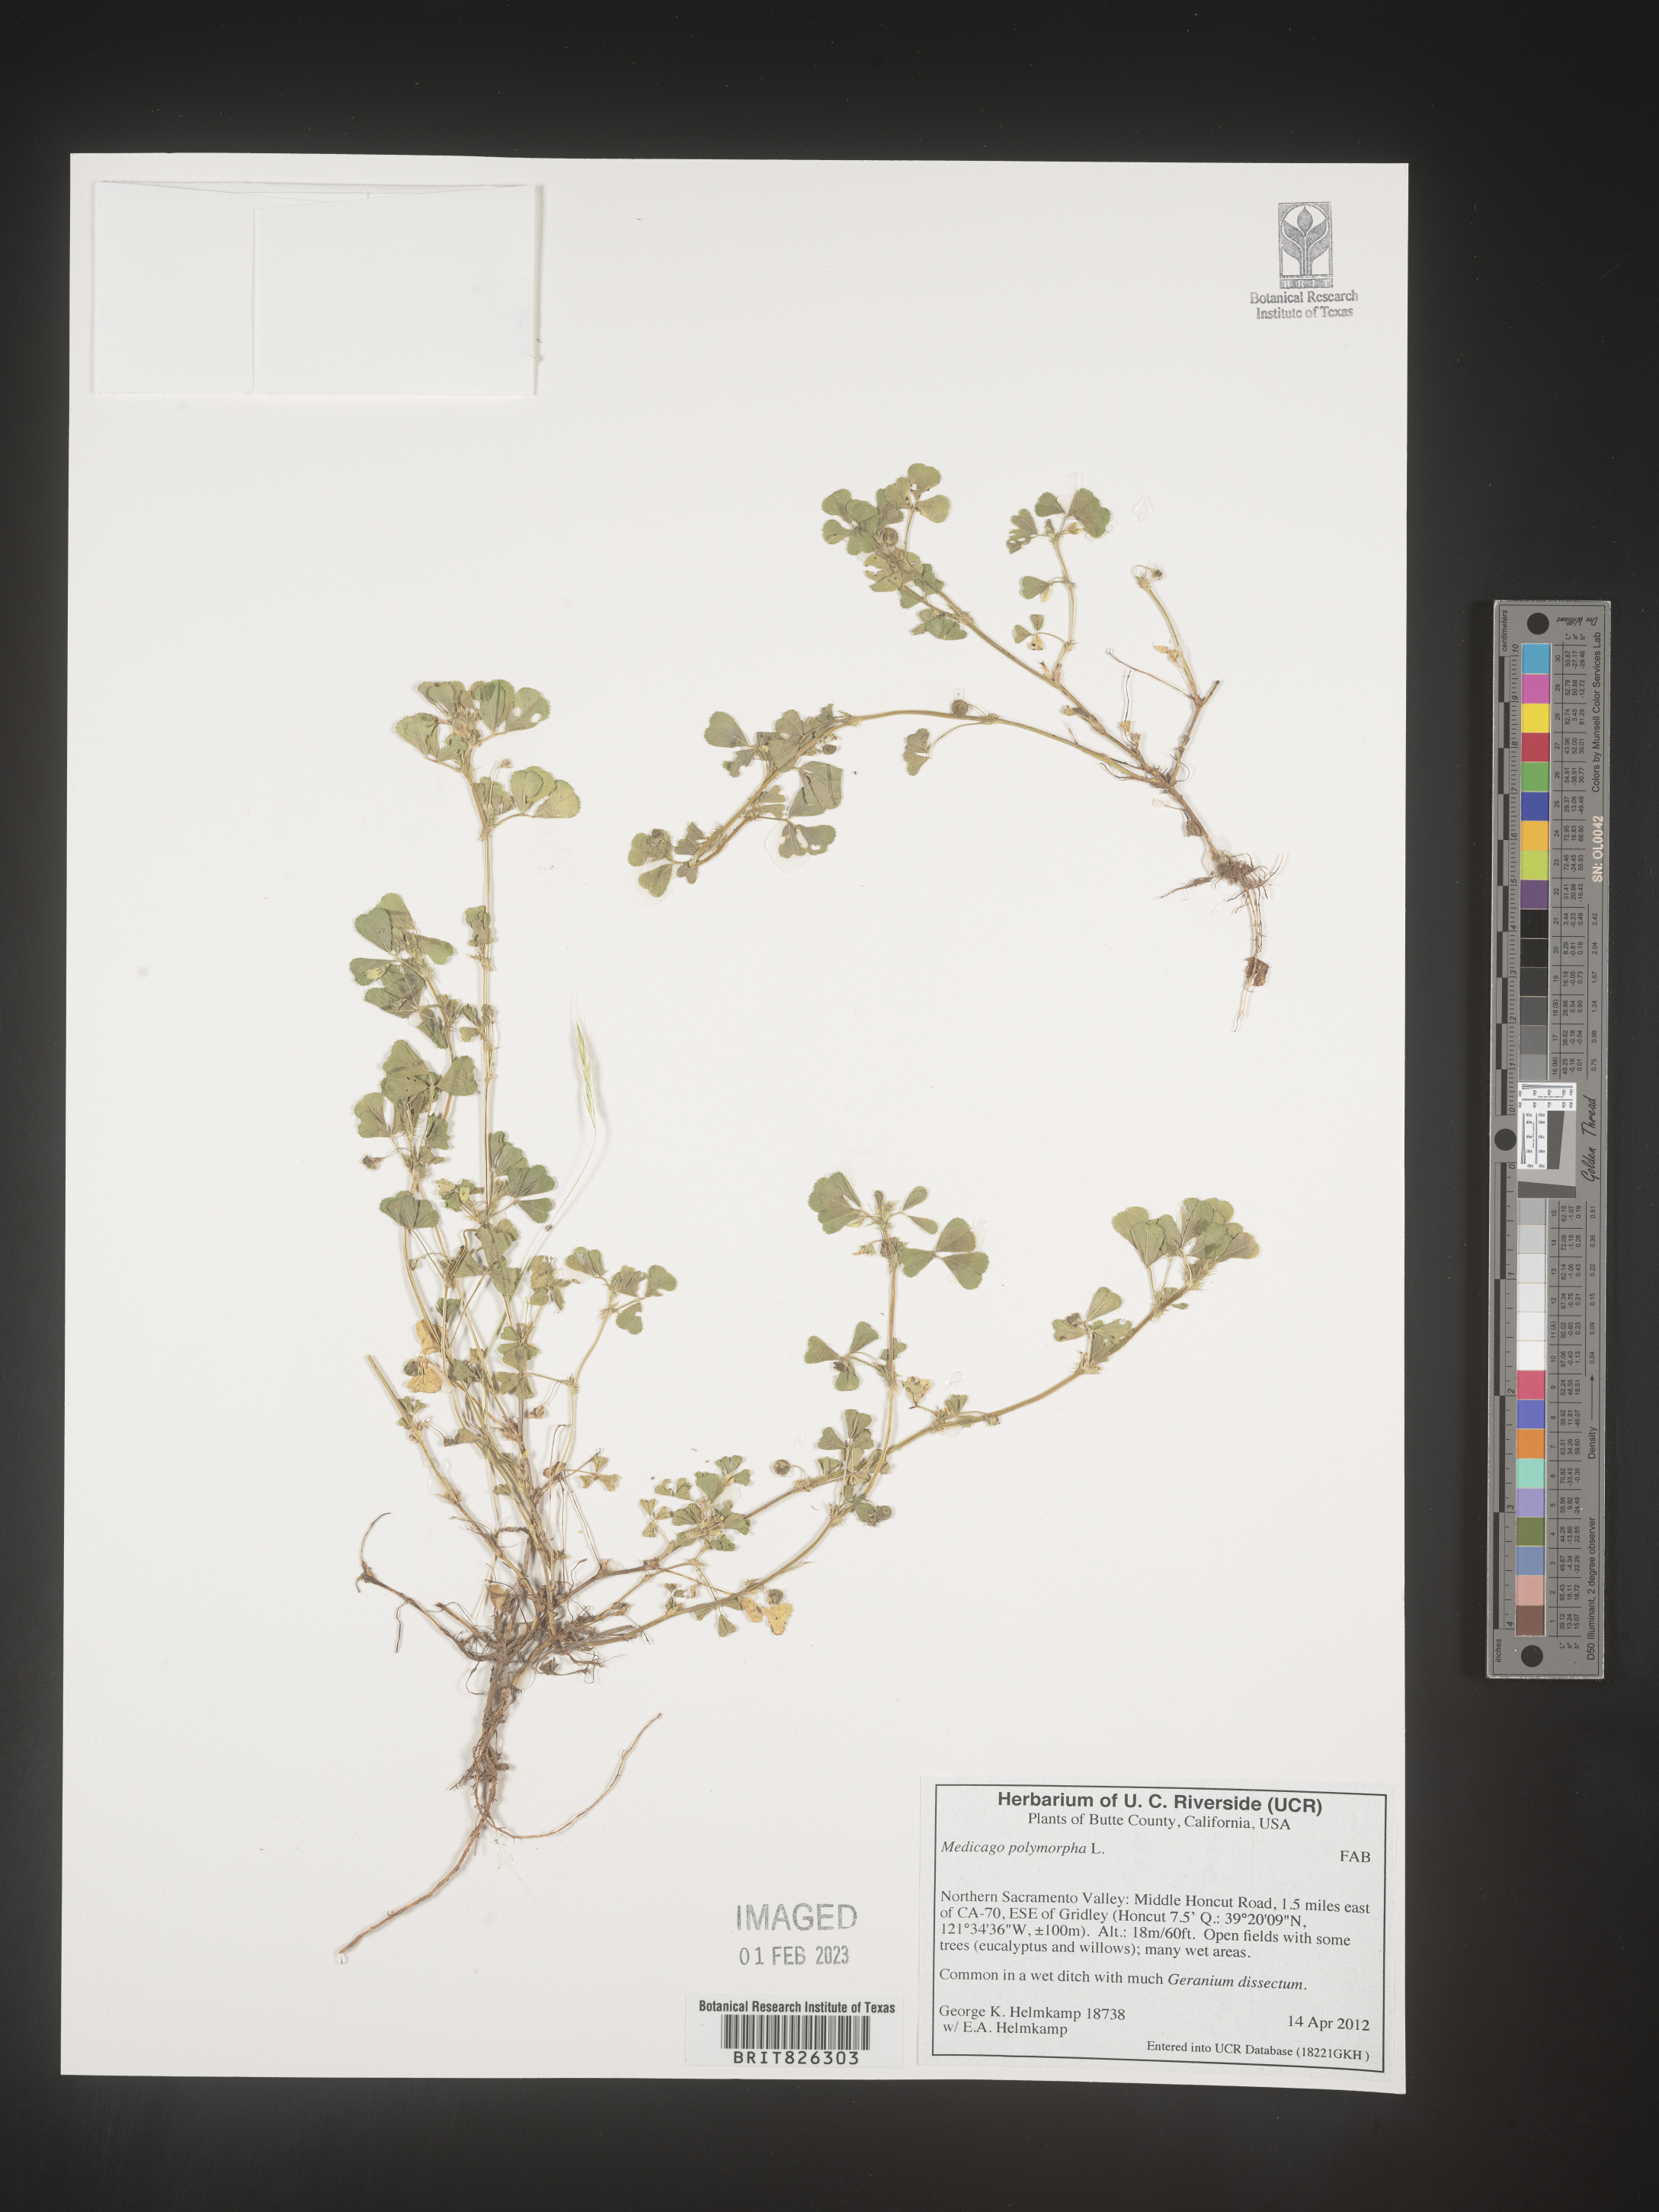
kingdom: Plantae
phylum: Tracheophyta
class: Magnoliopsida
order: Fabales
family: Fabaceae
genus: Medicago
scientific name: Medicago polymorpha
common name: Burclover
